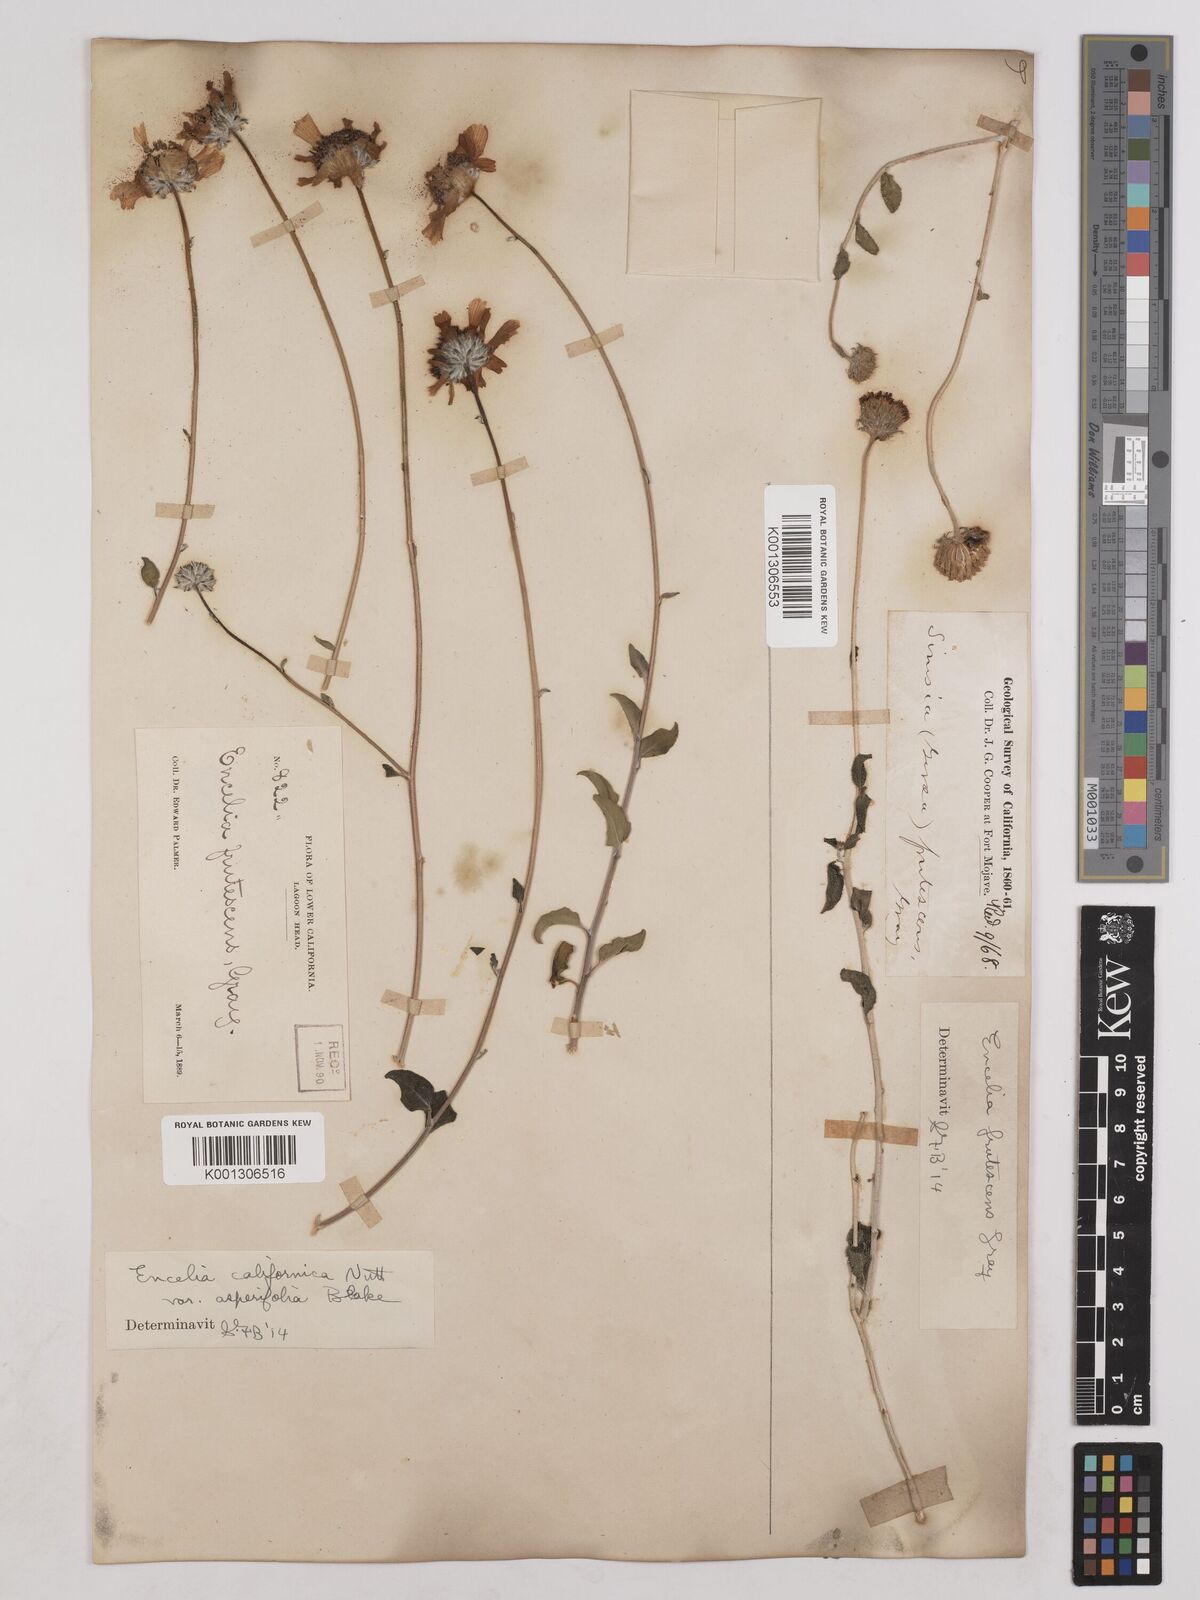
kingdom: Plantae
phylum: Tracheophyta
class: Magnoliopsida
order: Asterales
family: Asteraceae
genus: Encelia
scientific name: Encelia asperifolia
